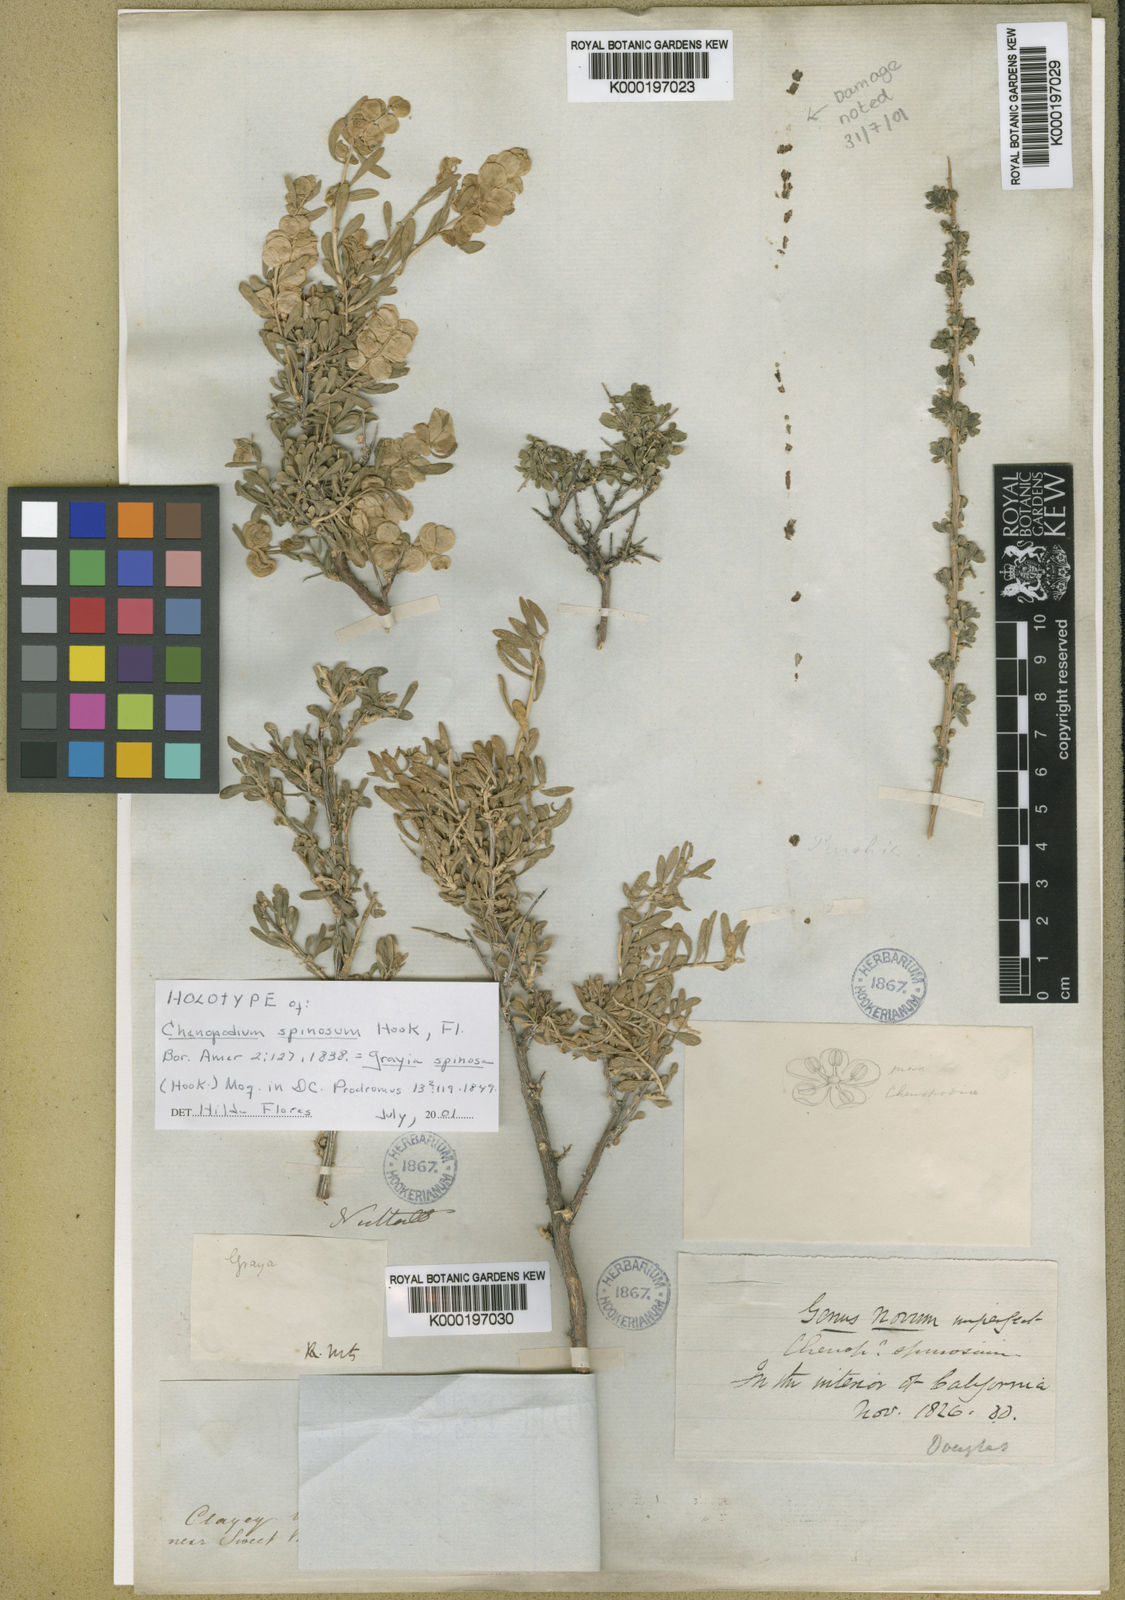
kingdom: Plantae
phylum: Tracheophyta
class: Magnoliopsida
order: Caryophyllales
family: Amaranthaceae
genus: Grayia
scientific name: Grayia spinosa
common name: Spiny hopsage
